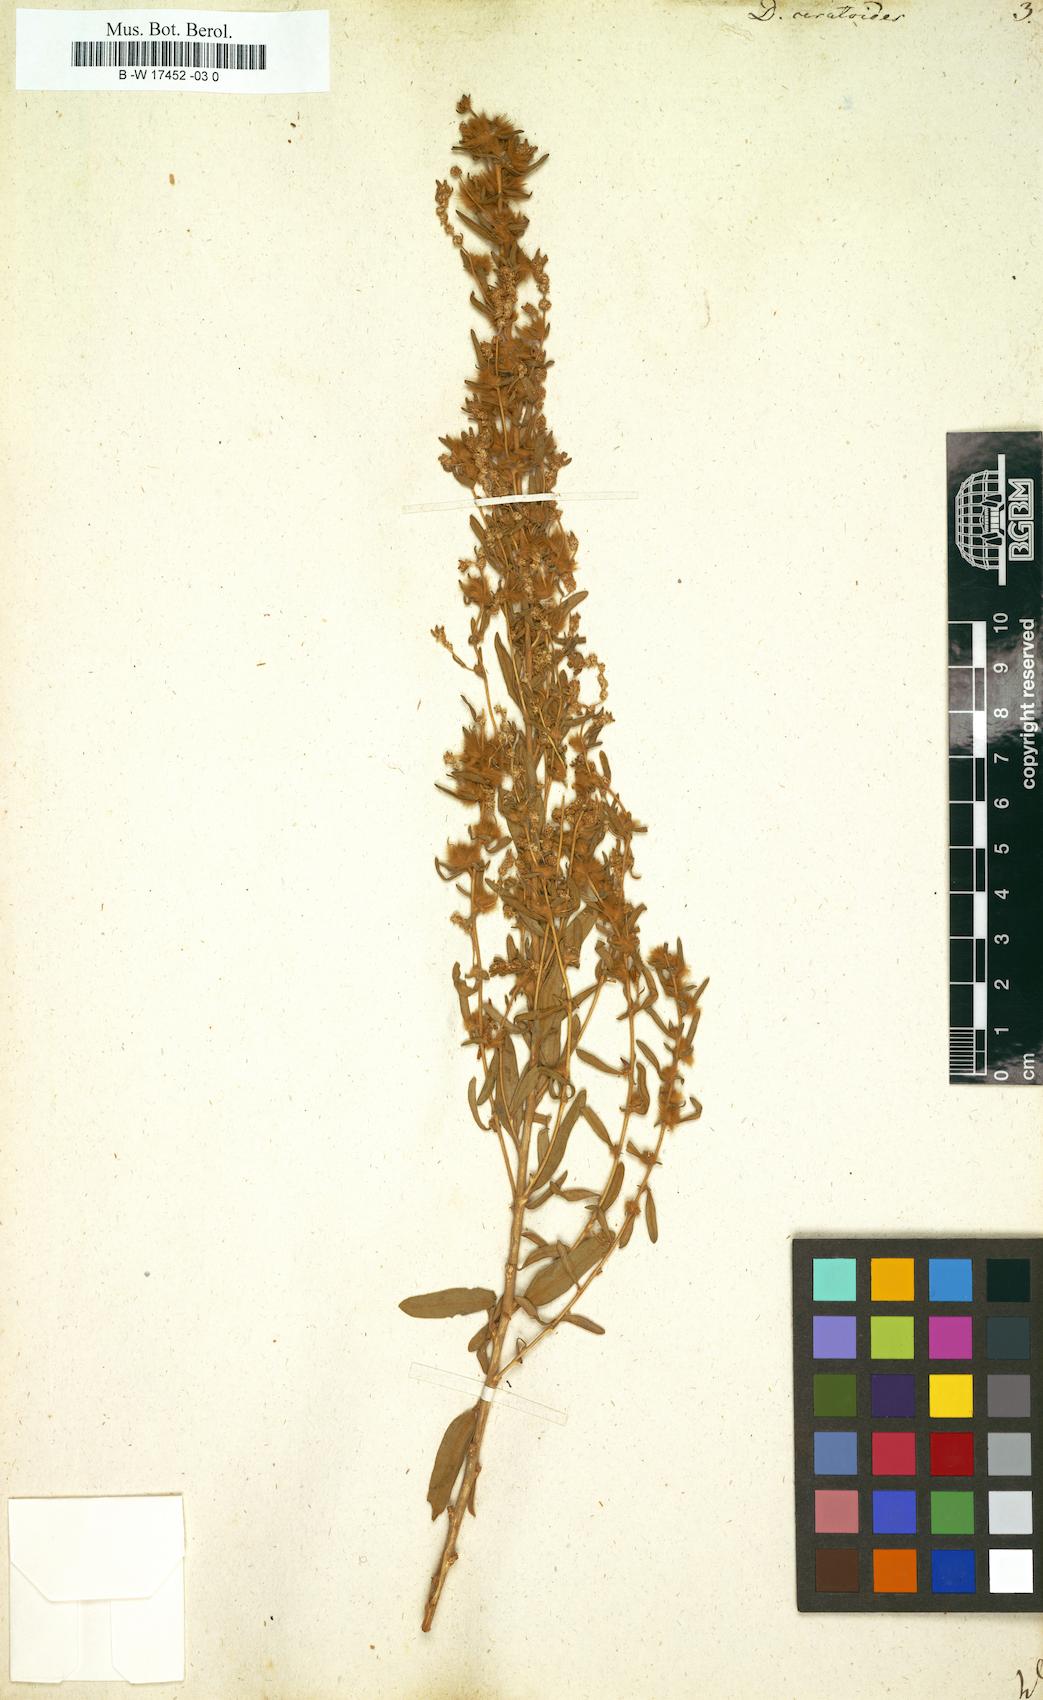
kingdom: Plantae
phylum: Tracheophyta
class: Magnoliopsida
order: Caryophyllales
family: Amaranthaceae
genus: Krascheninnikovia
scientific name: Krascheninnikovia ceratoides
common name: Pamirian winterfat
